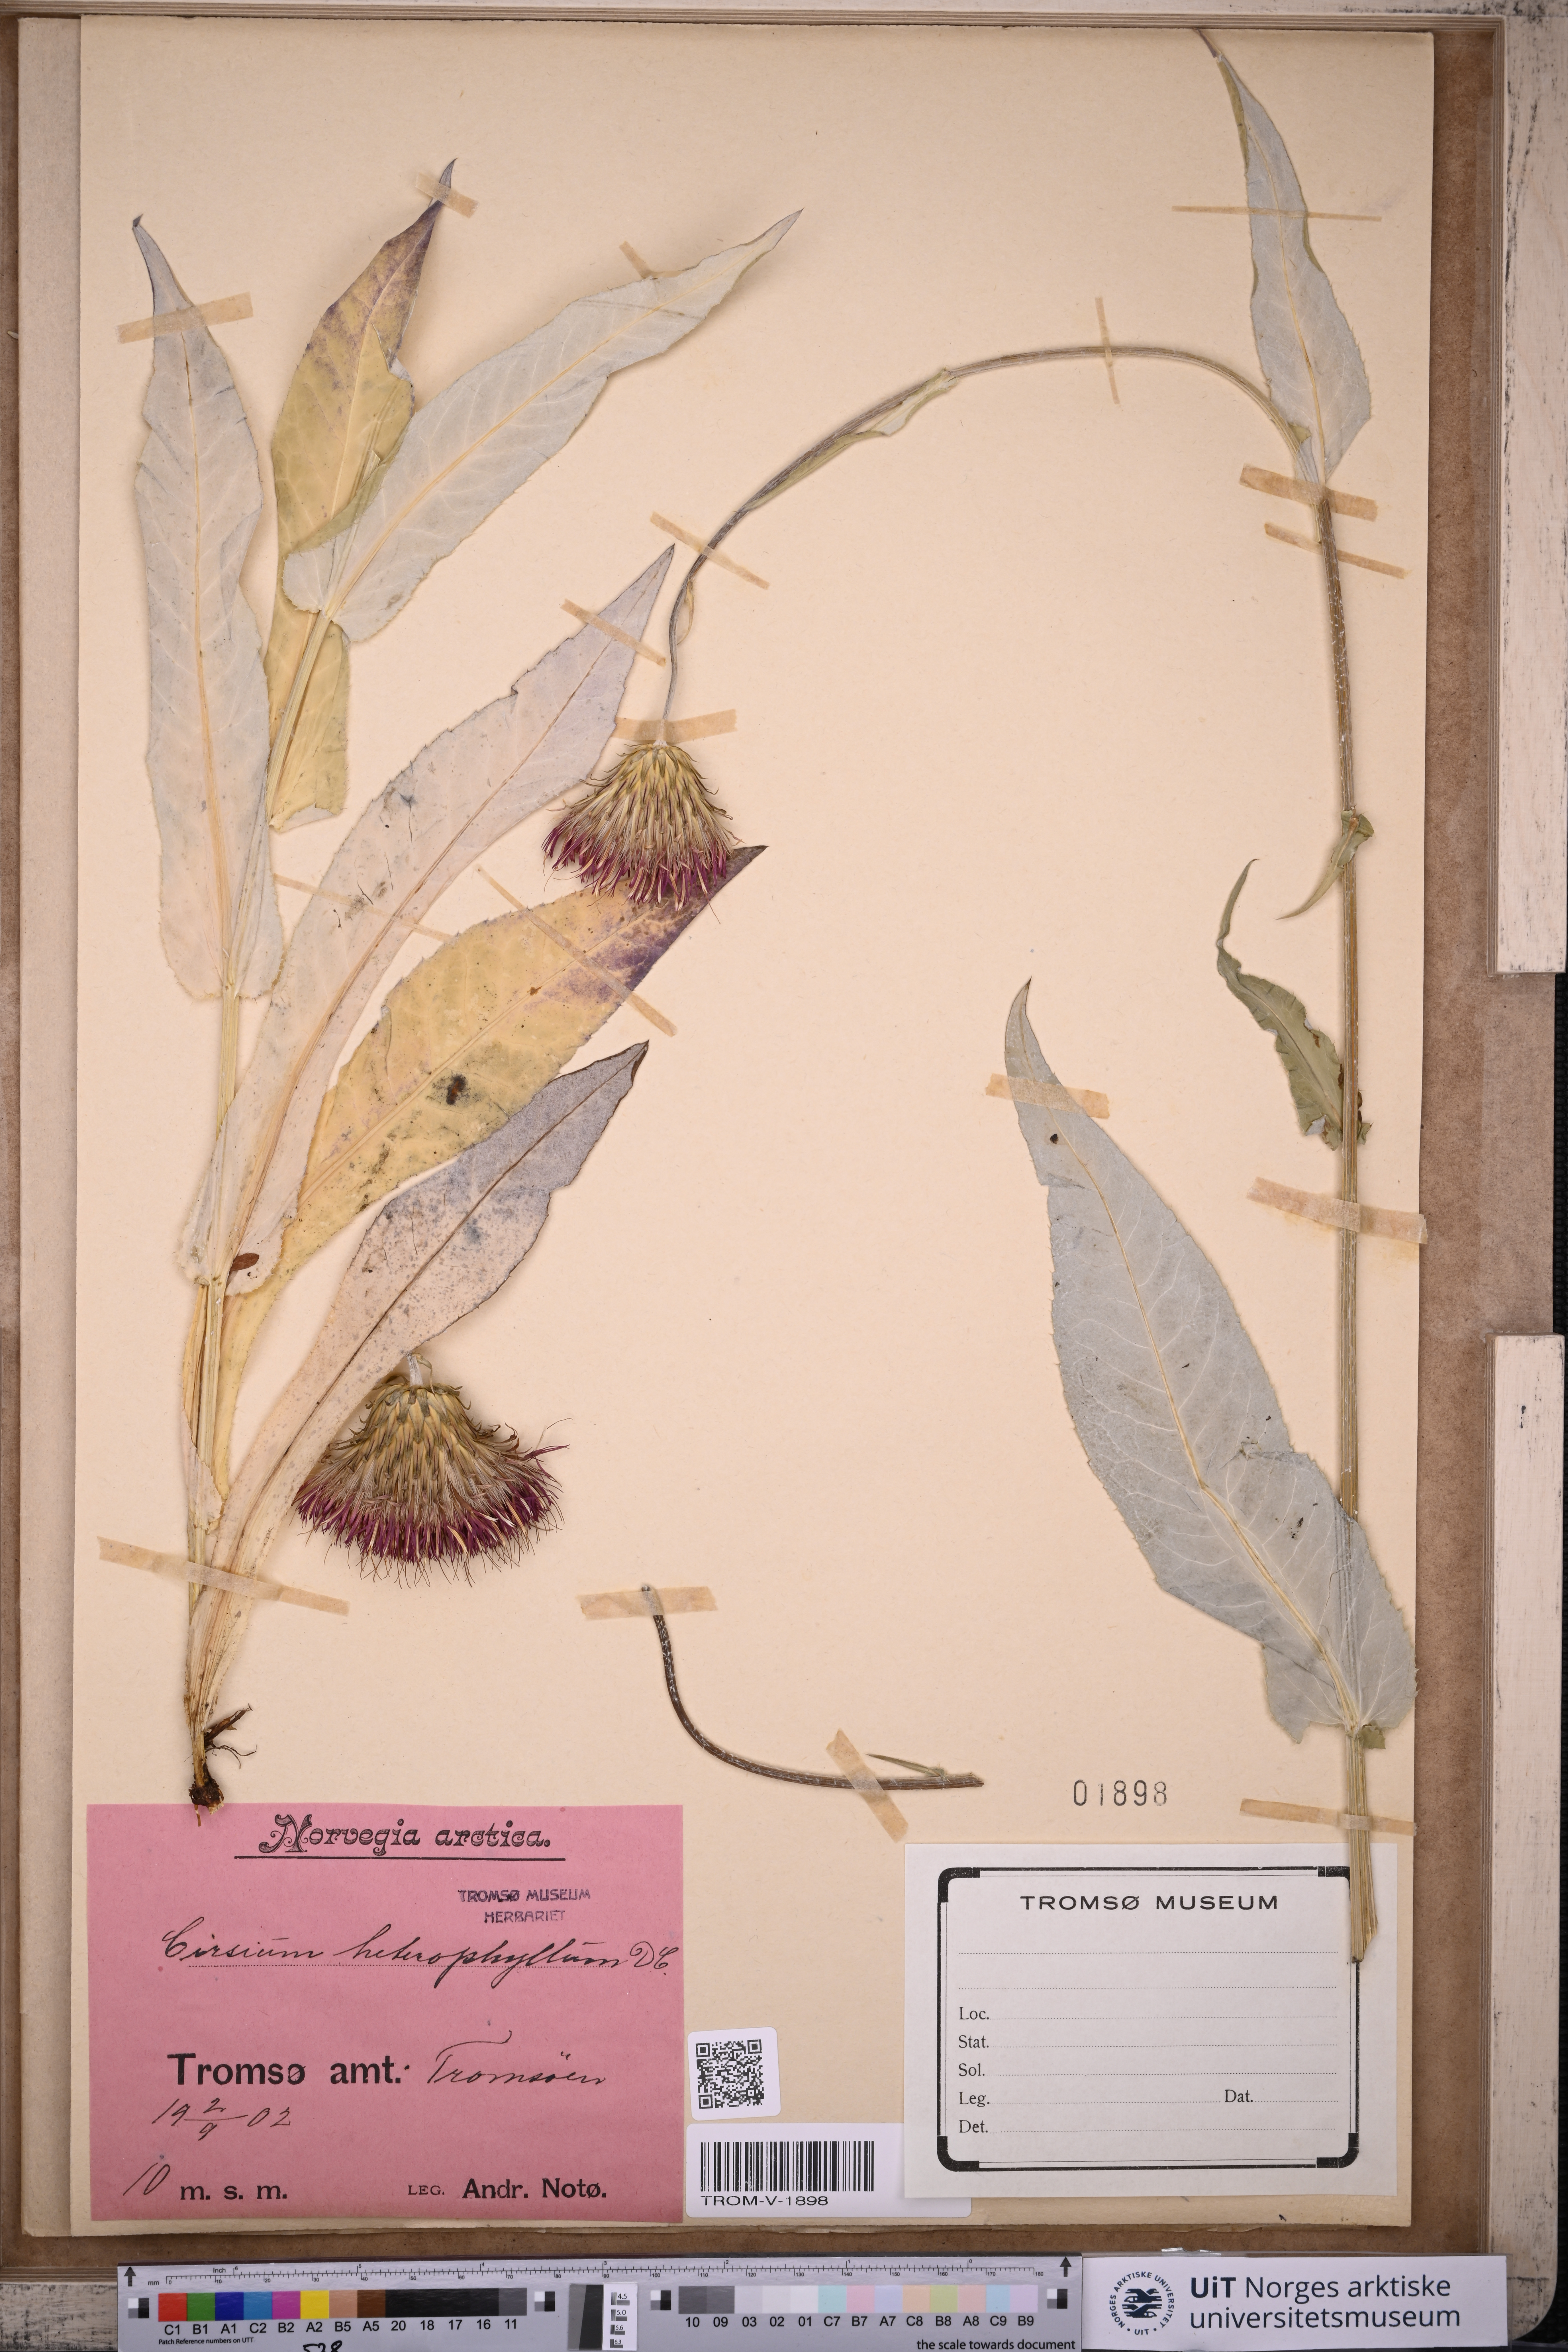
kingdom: Plantae
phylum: Tracheophyta
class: Magnoliopsida
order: Asterales
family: Asteraceae
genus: Cirsium
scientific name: Cirsium heterophyllum
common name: Melancholy thistle
